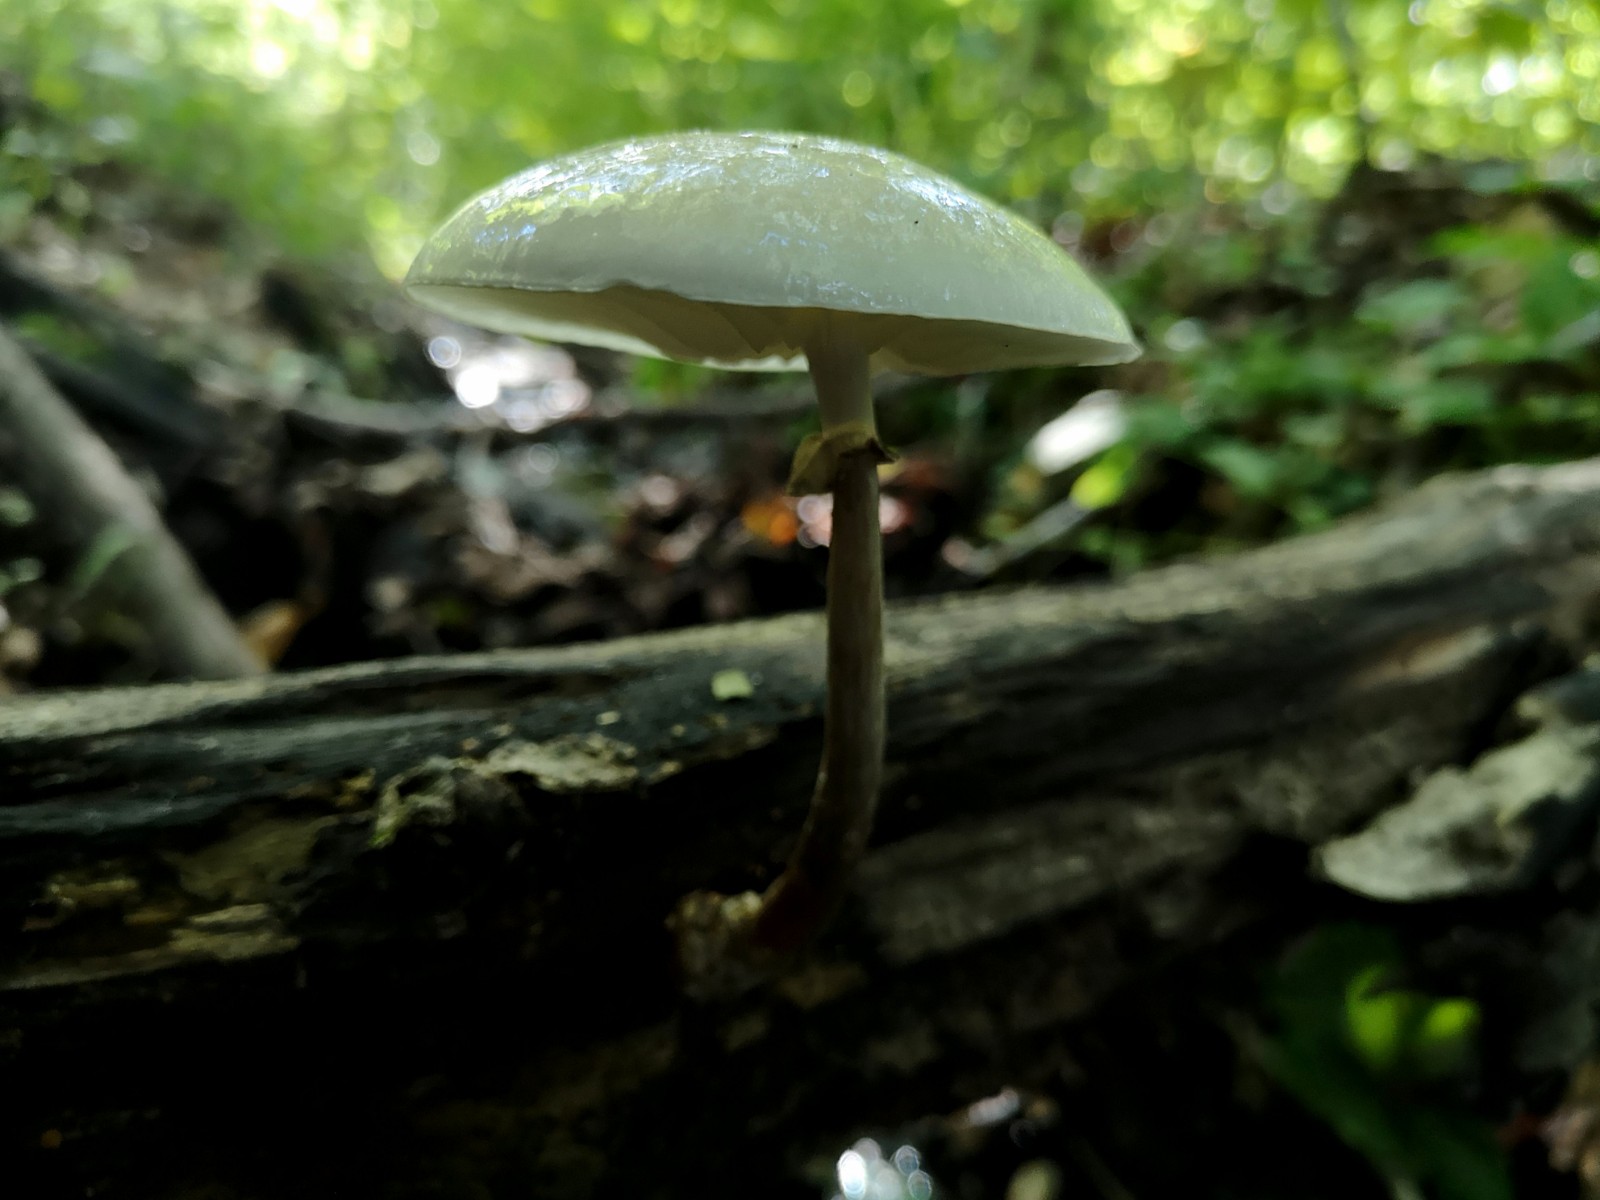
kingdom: Fungi
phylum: Basidiomycota
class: Agaricomycetes
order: Agaricales
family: Physalacriaceae
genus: Mucidula
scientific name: Mucidula mucida
